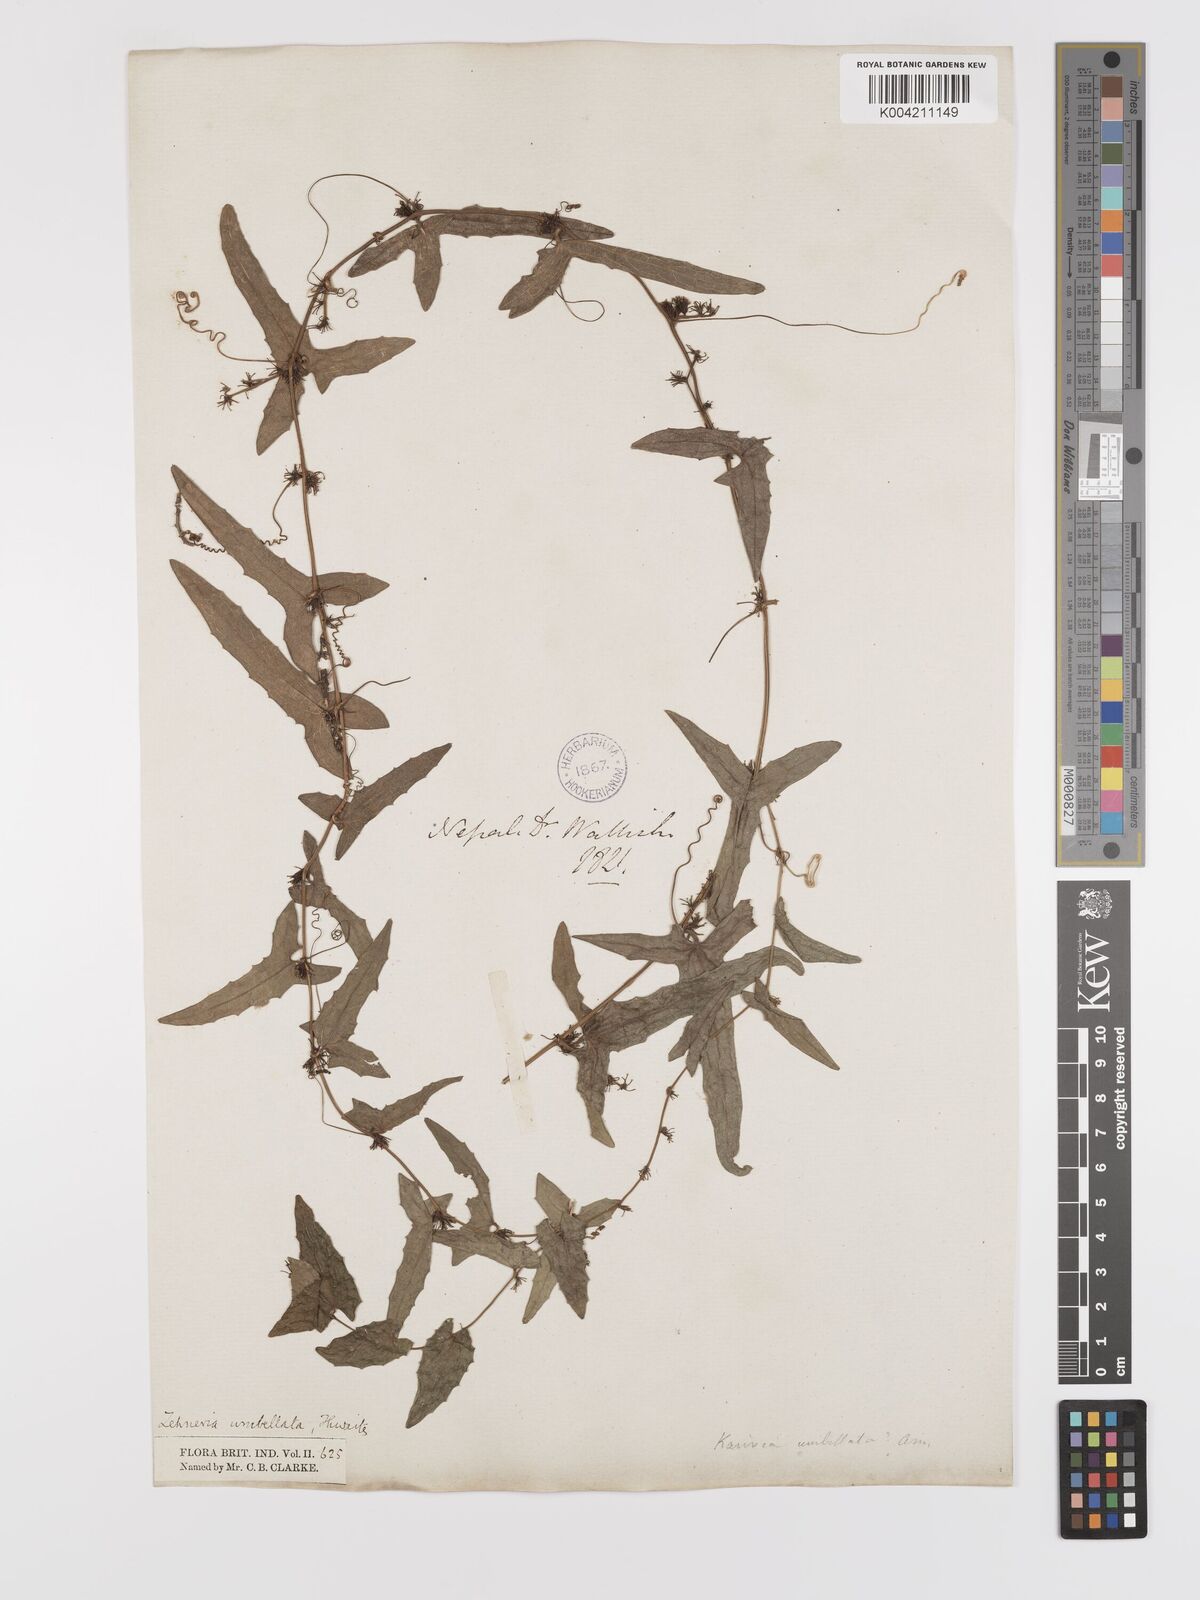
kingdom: Plantae
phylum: Tracheophyta
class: Magnoliopsida
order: Cucurbitales
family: Cucurbitaceae
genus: Solena
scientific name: Solena
